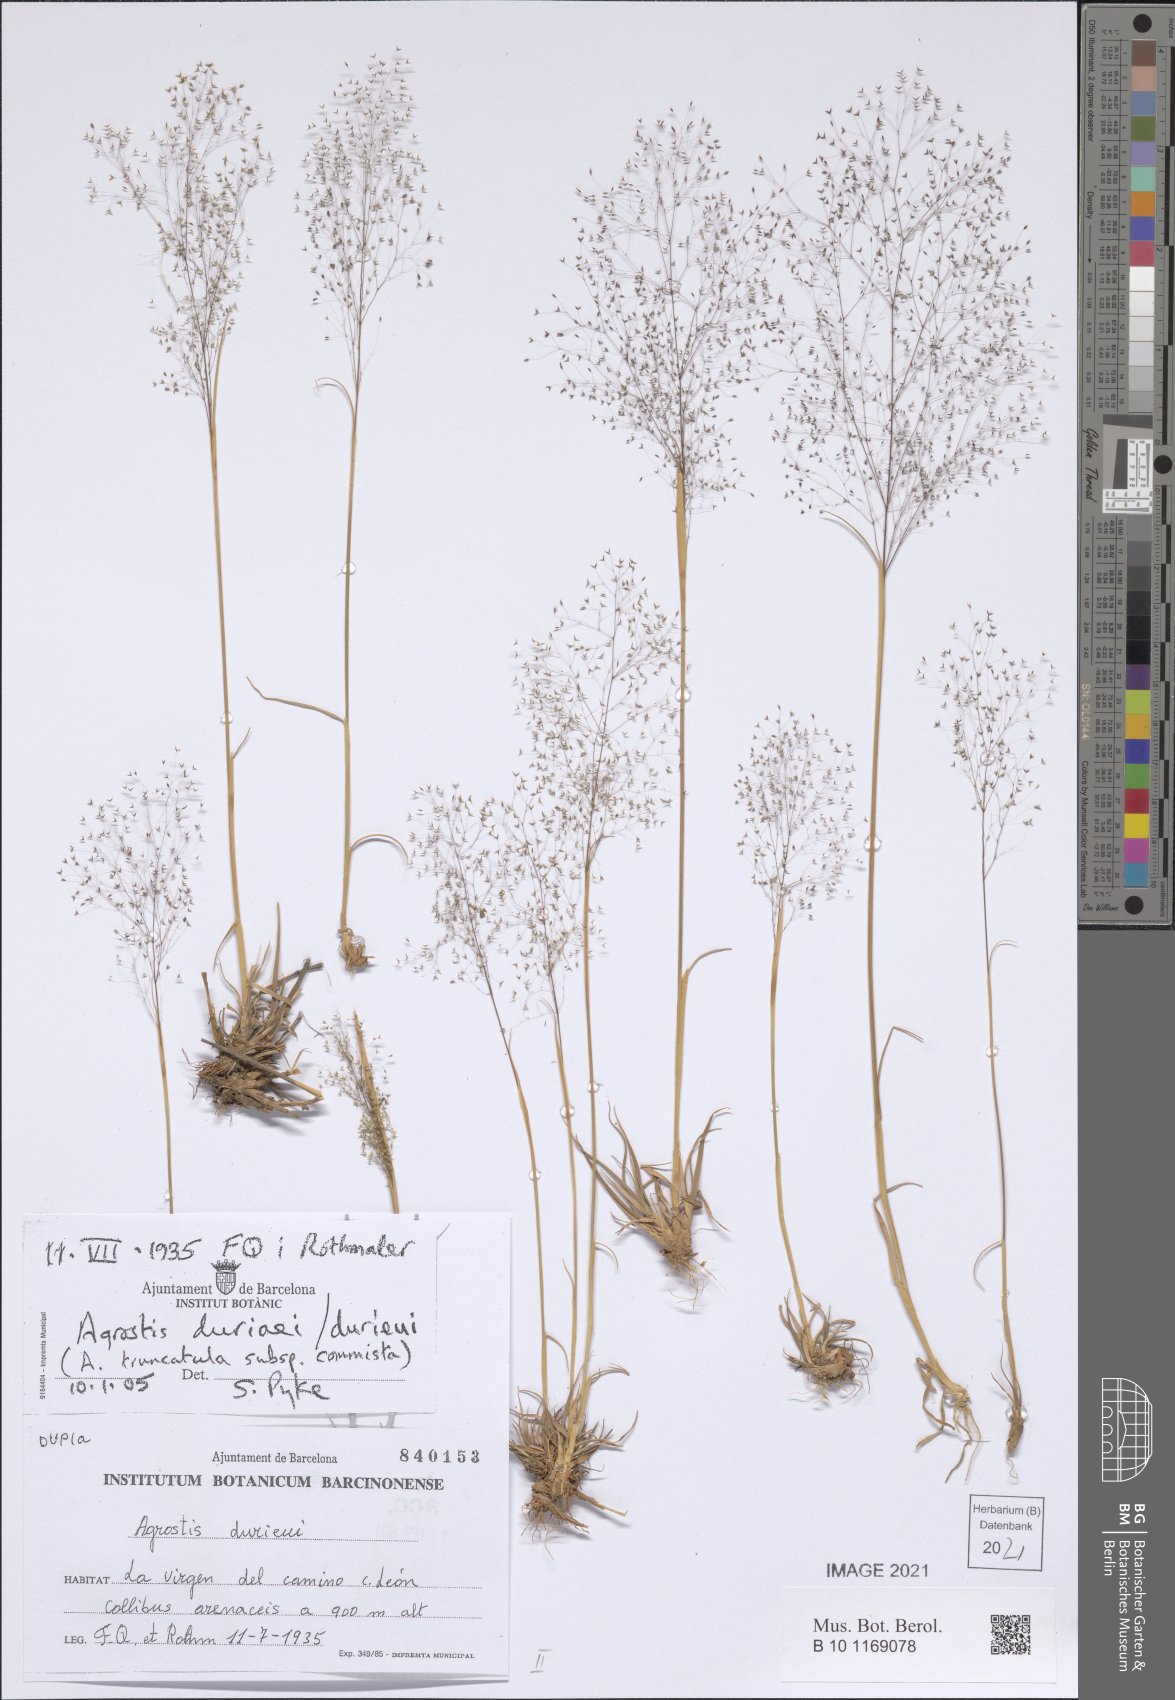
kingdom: Plantae
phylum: Tracheophyta
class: Liliopsida
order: Poales
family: Poaceae
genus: Agrostula
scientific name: Agrostula truncatula
